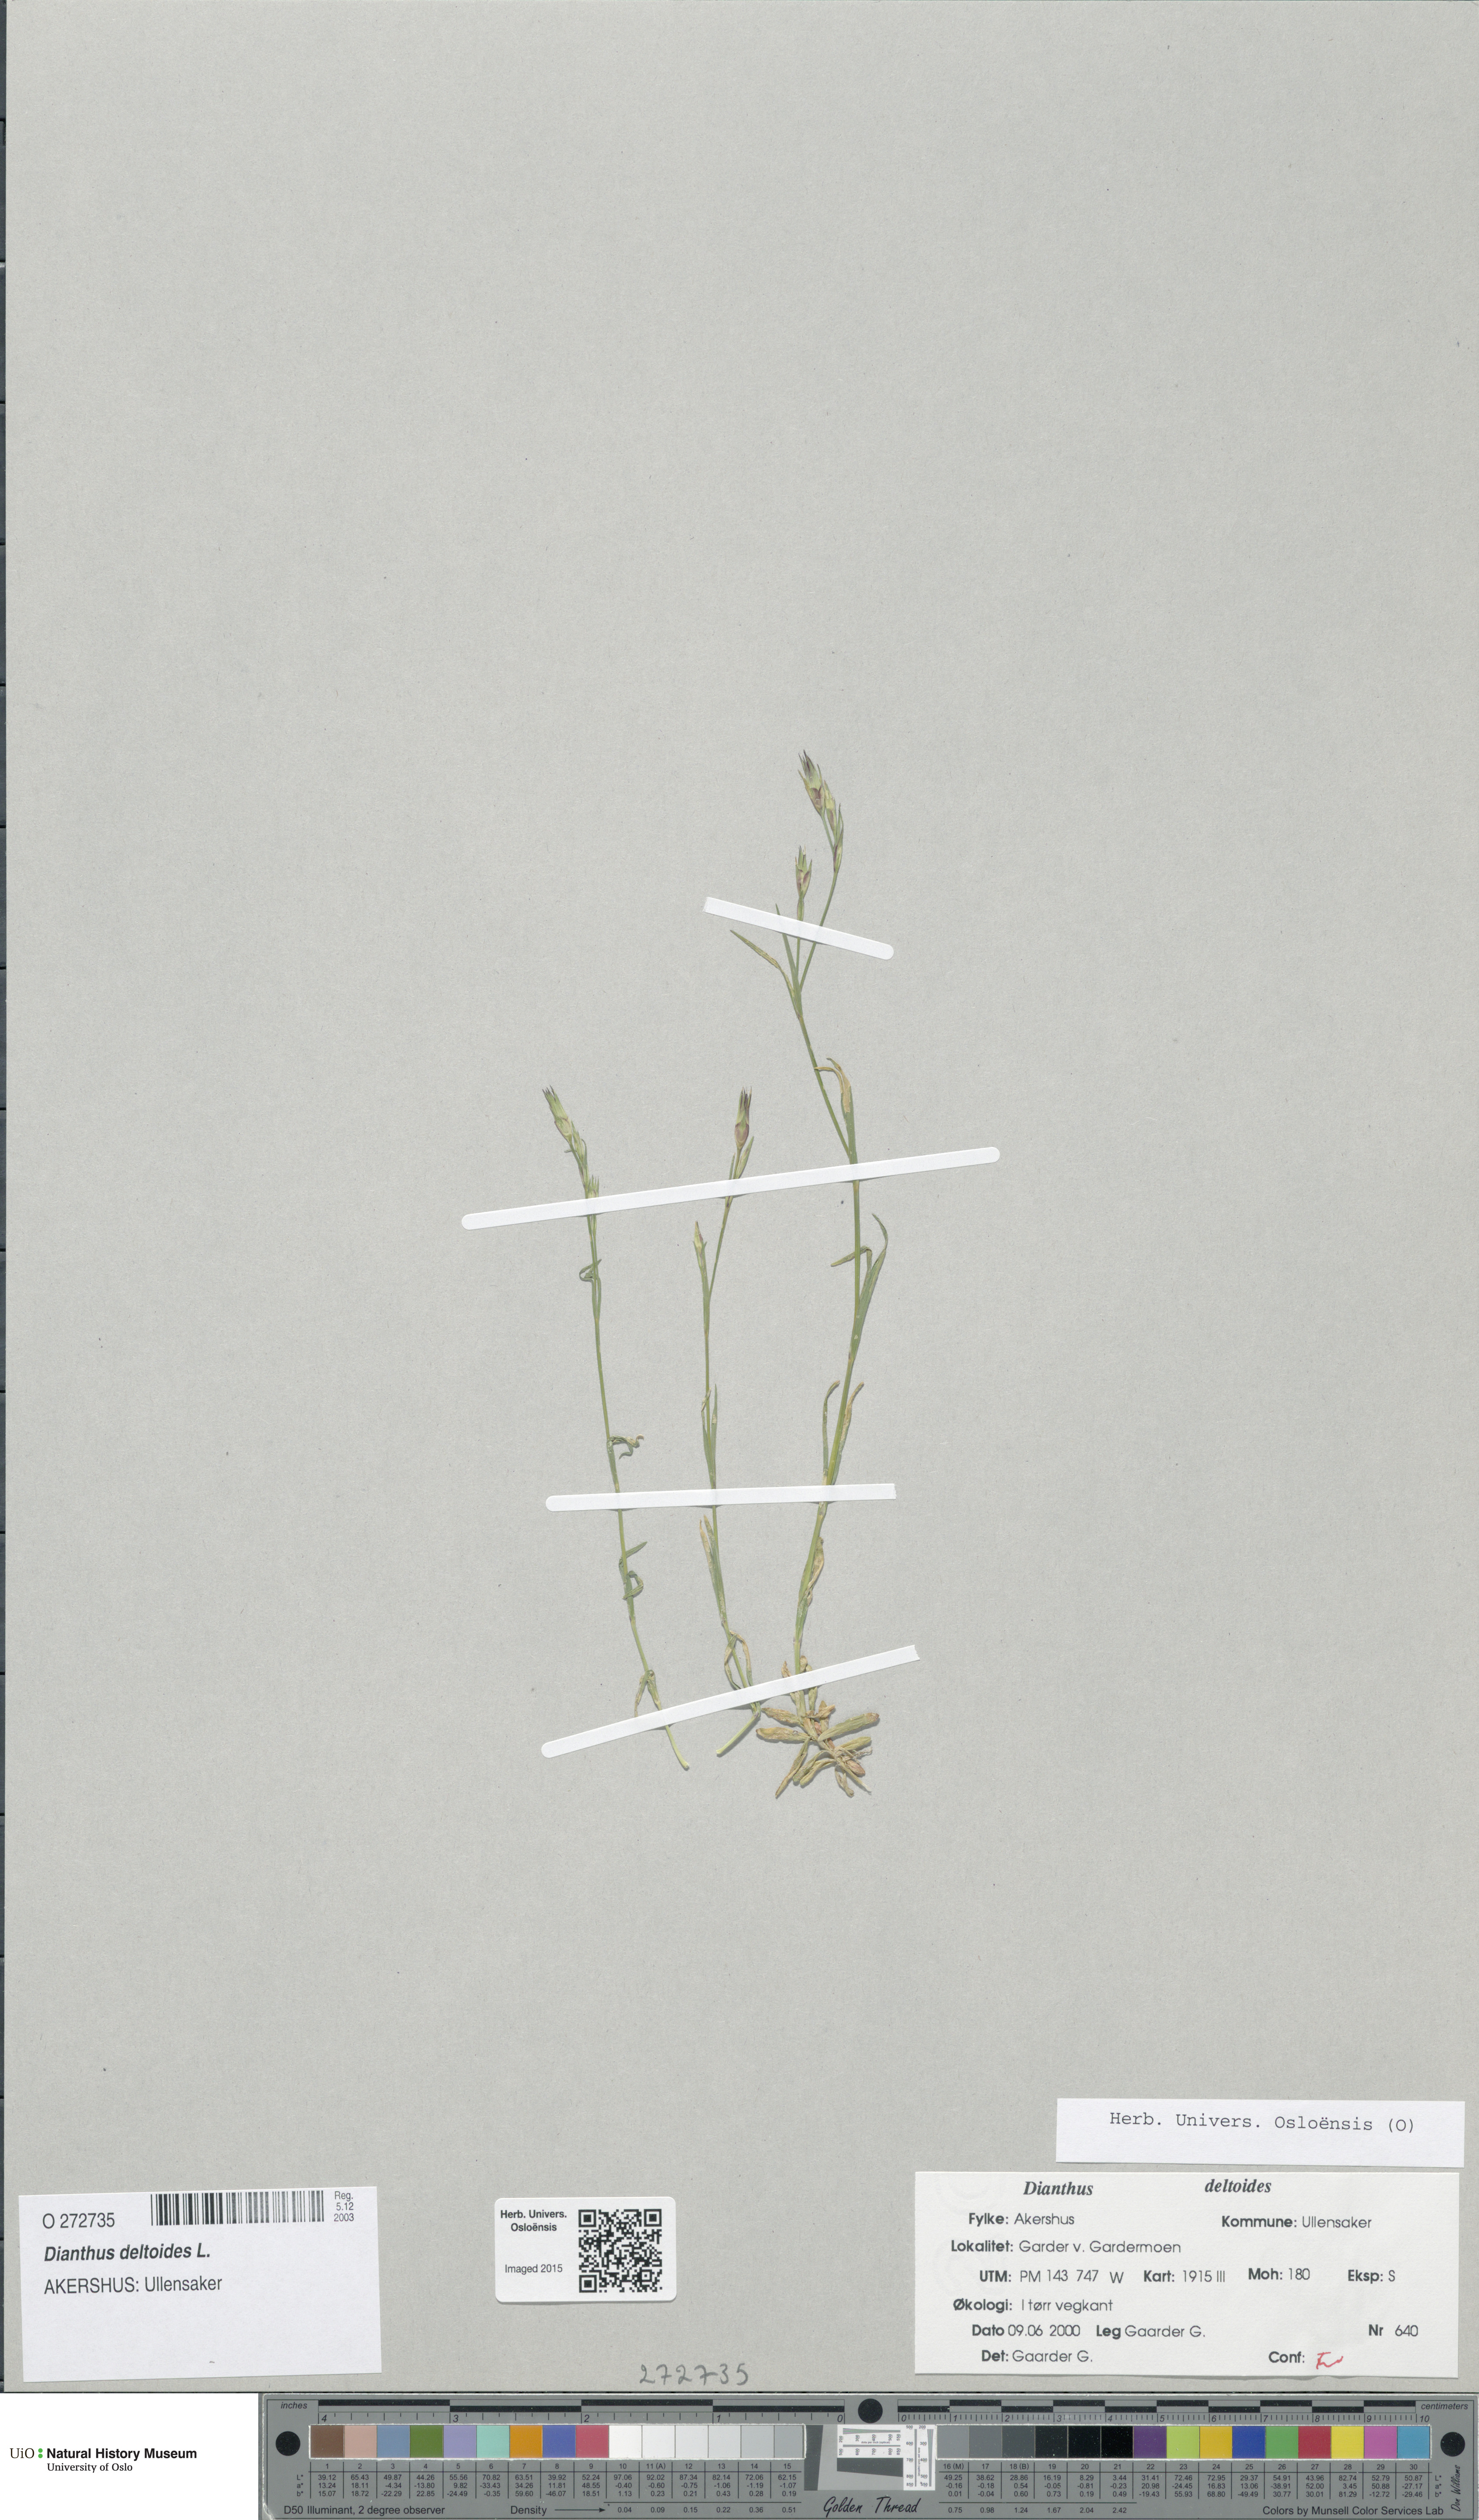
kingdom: Plantae
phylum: Tracheophyta
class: Magnoliopsida
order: Caryophyllales
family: Caryophyllaceae
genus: Dianthus
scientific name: Dianthus deltoides
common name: Maiden pink
